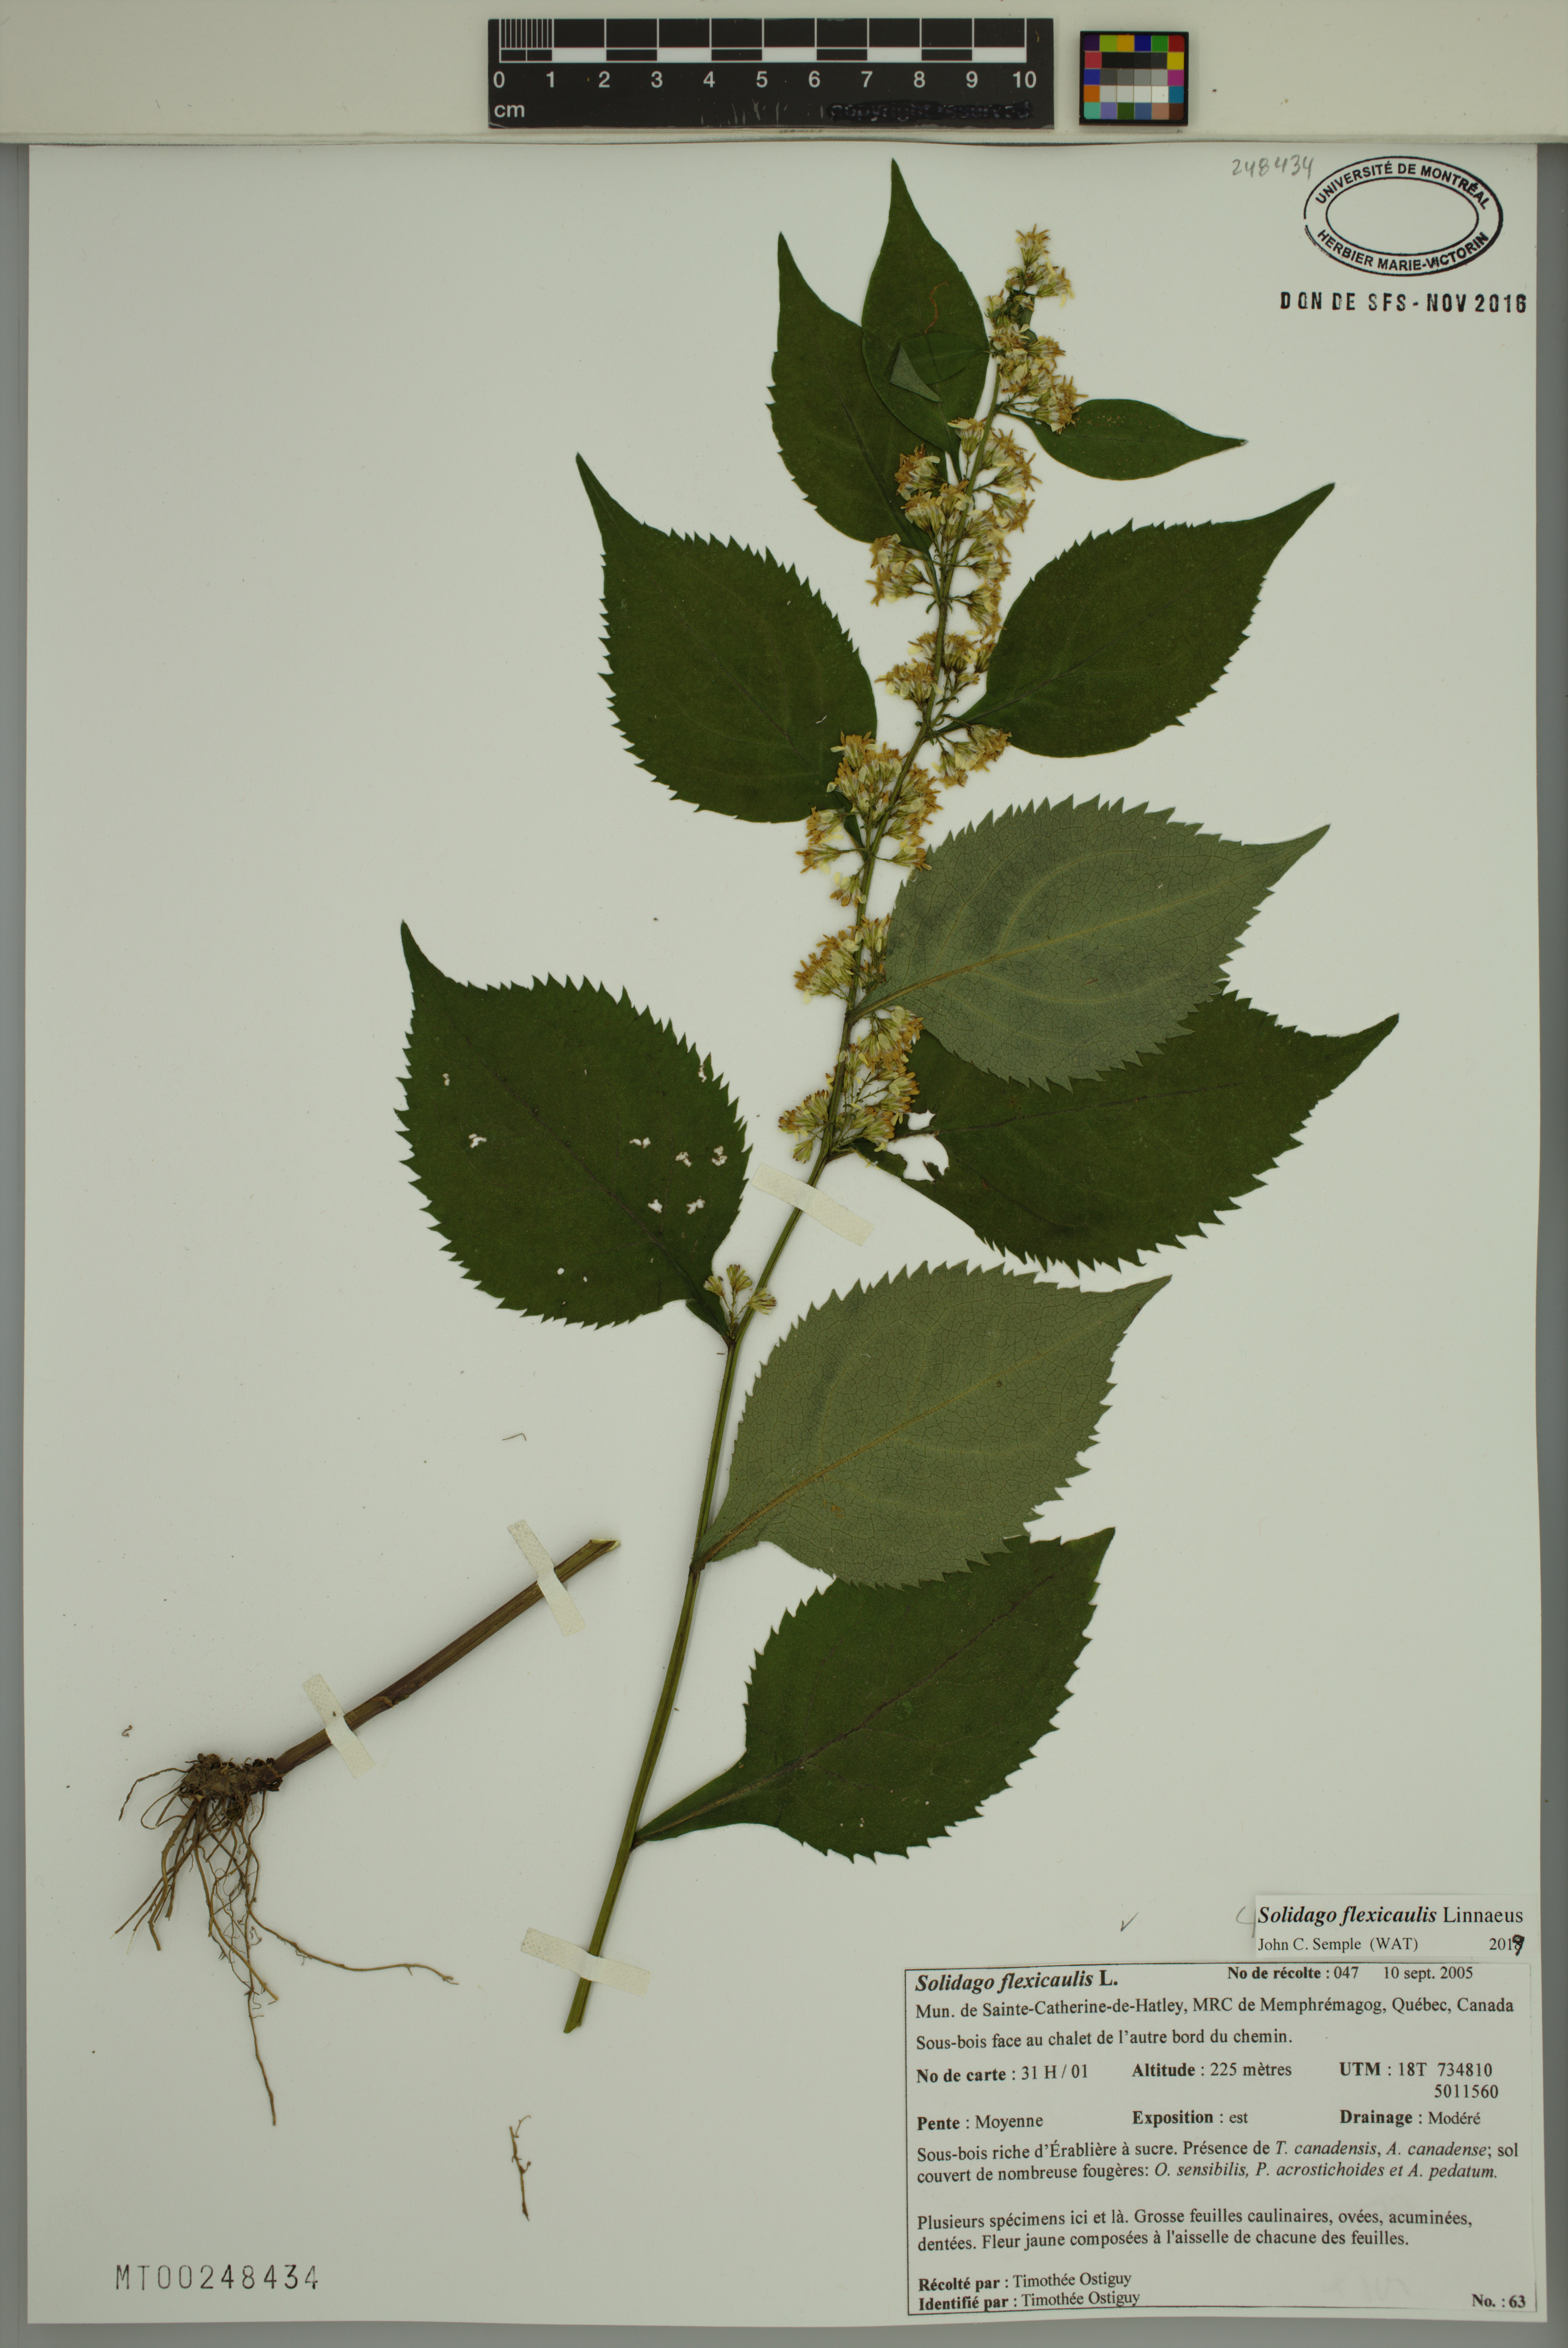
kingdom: Plantae
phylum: Tracheophyta
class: Magnoliopsida
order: Asterales
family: Asteraceae
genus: Solidago
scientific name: Solidago flexicaulis
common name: Zig-zag goldenrod
